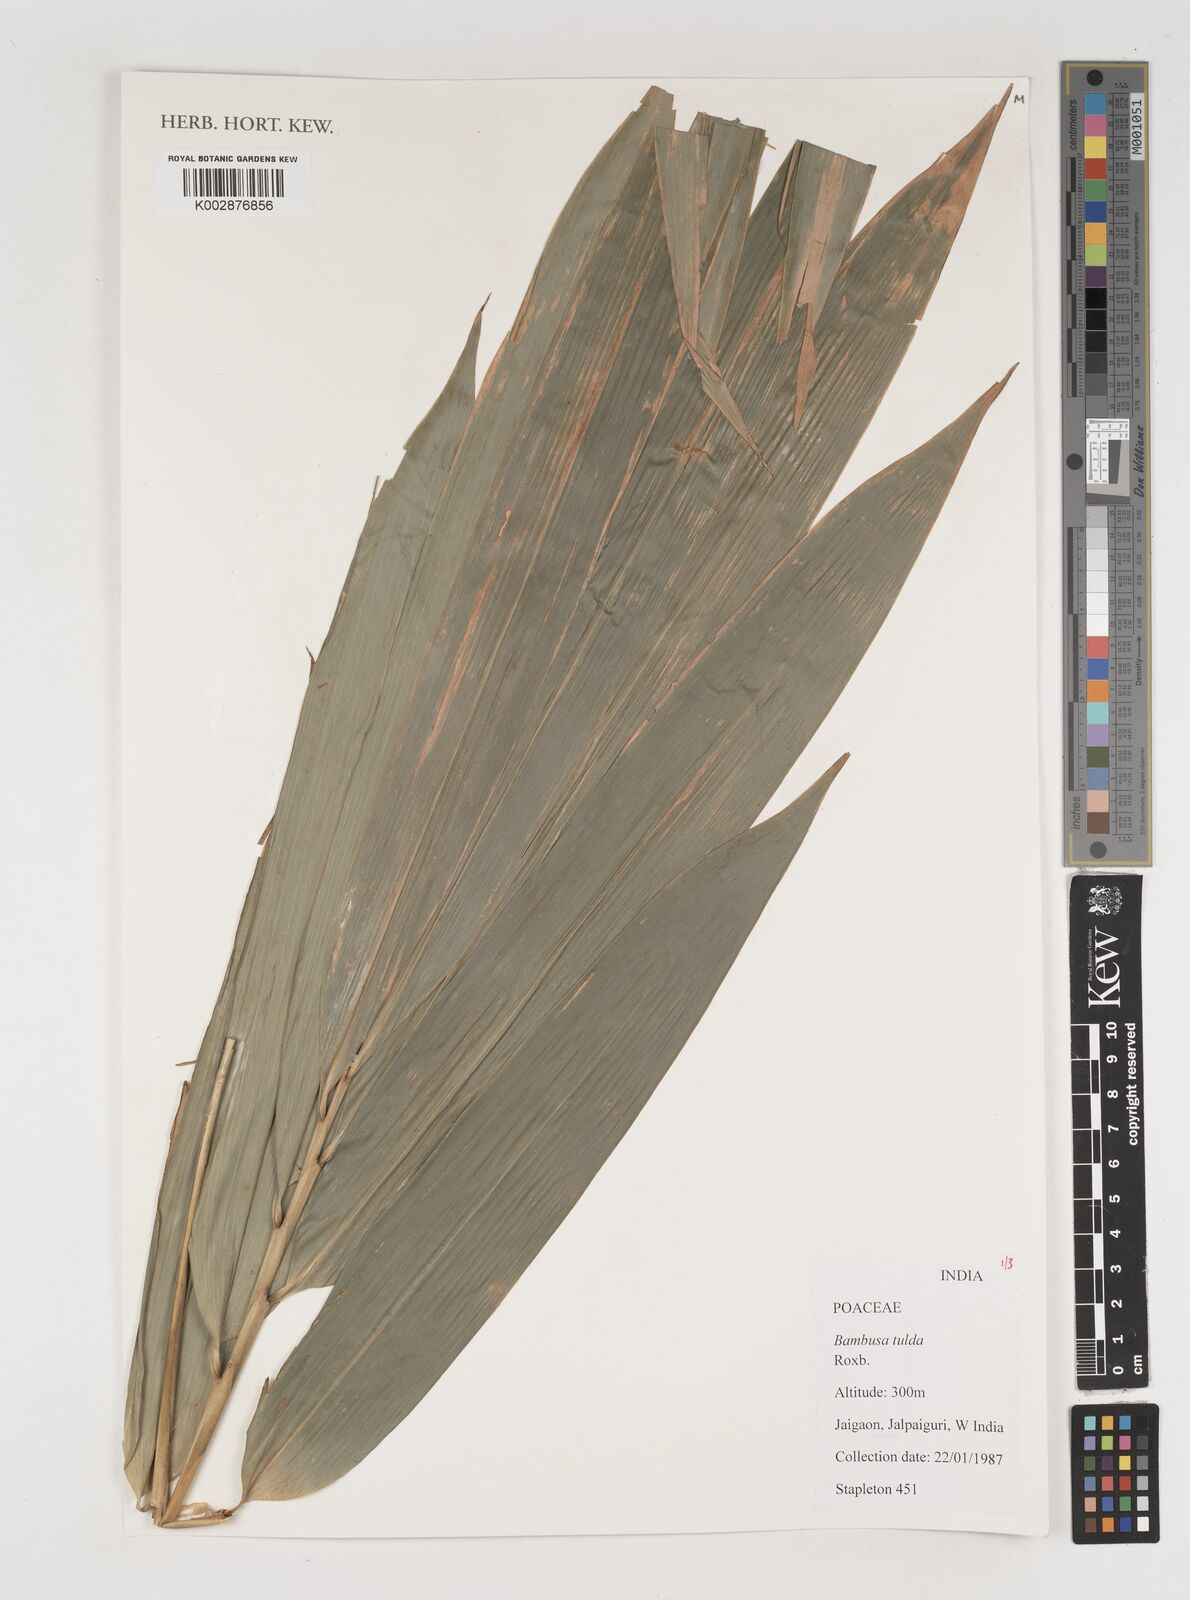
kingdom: Plantae
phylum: Tracheophyta
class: Liliopsida
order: Poales
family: Poaceae
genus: Bambusa
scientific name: Bambusa tulda
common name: Bengal bamboo
